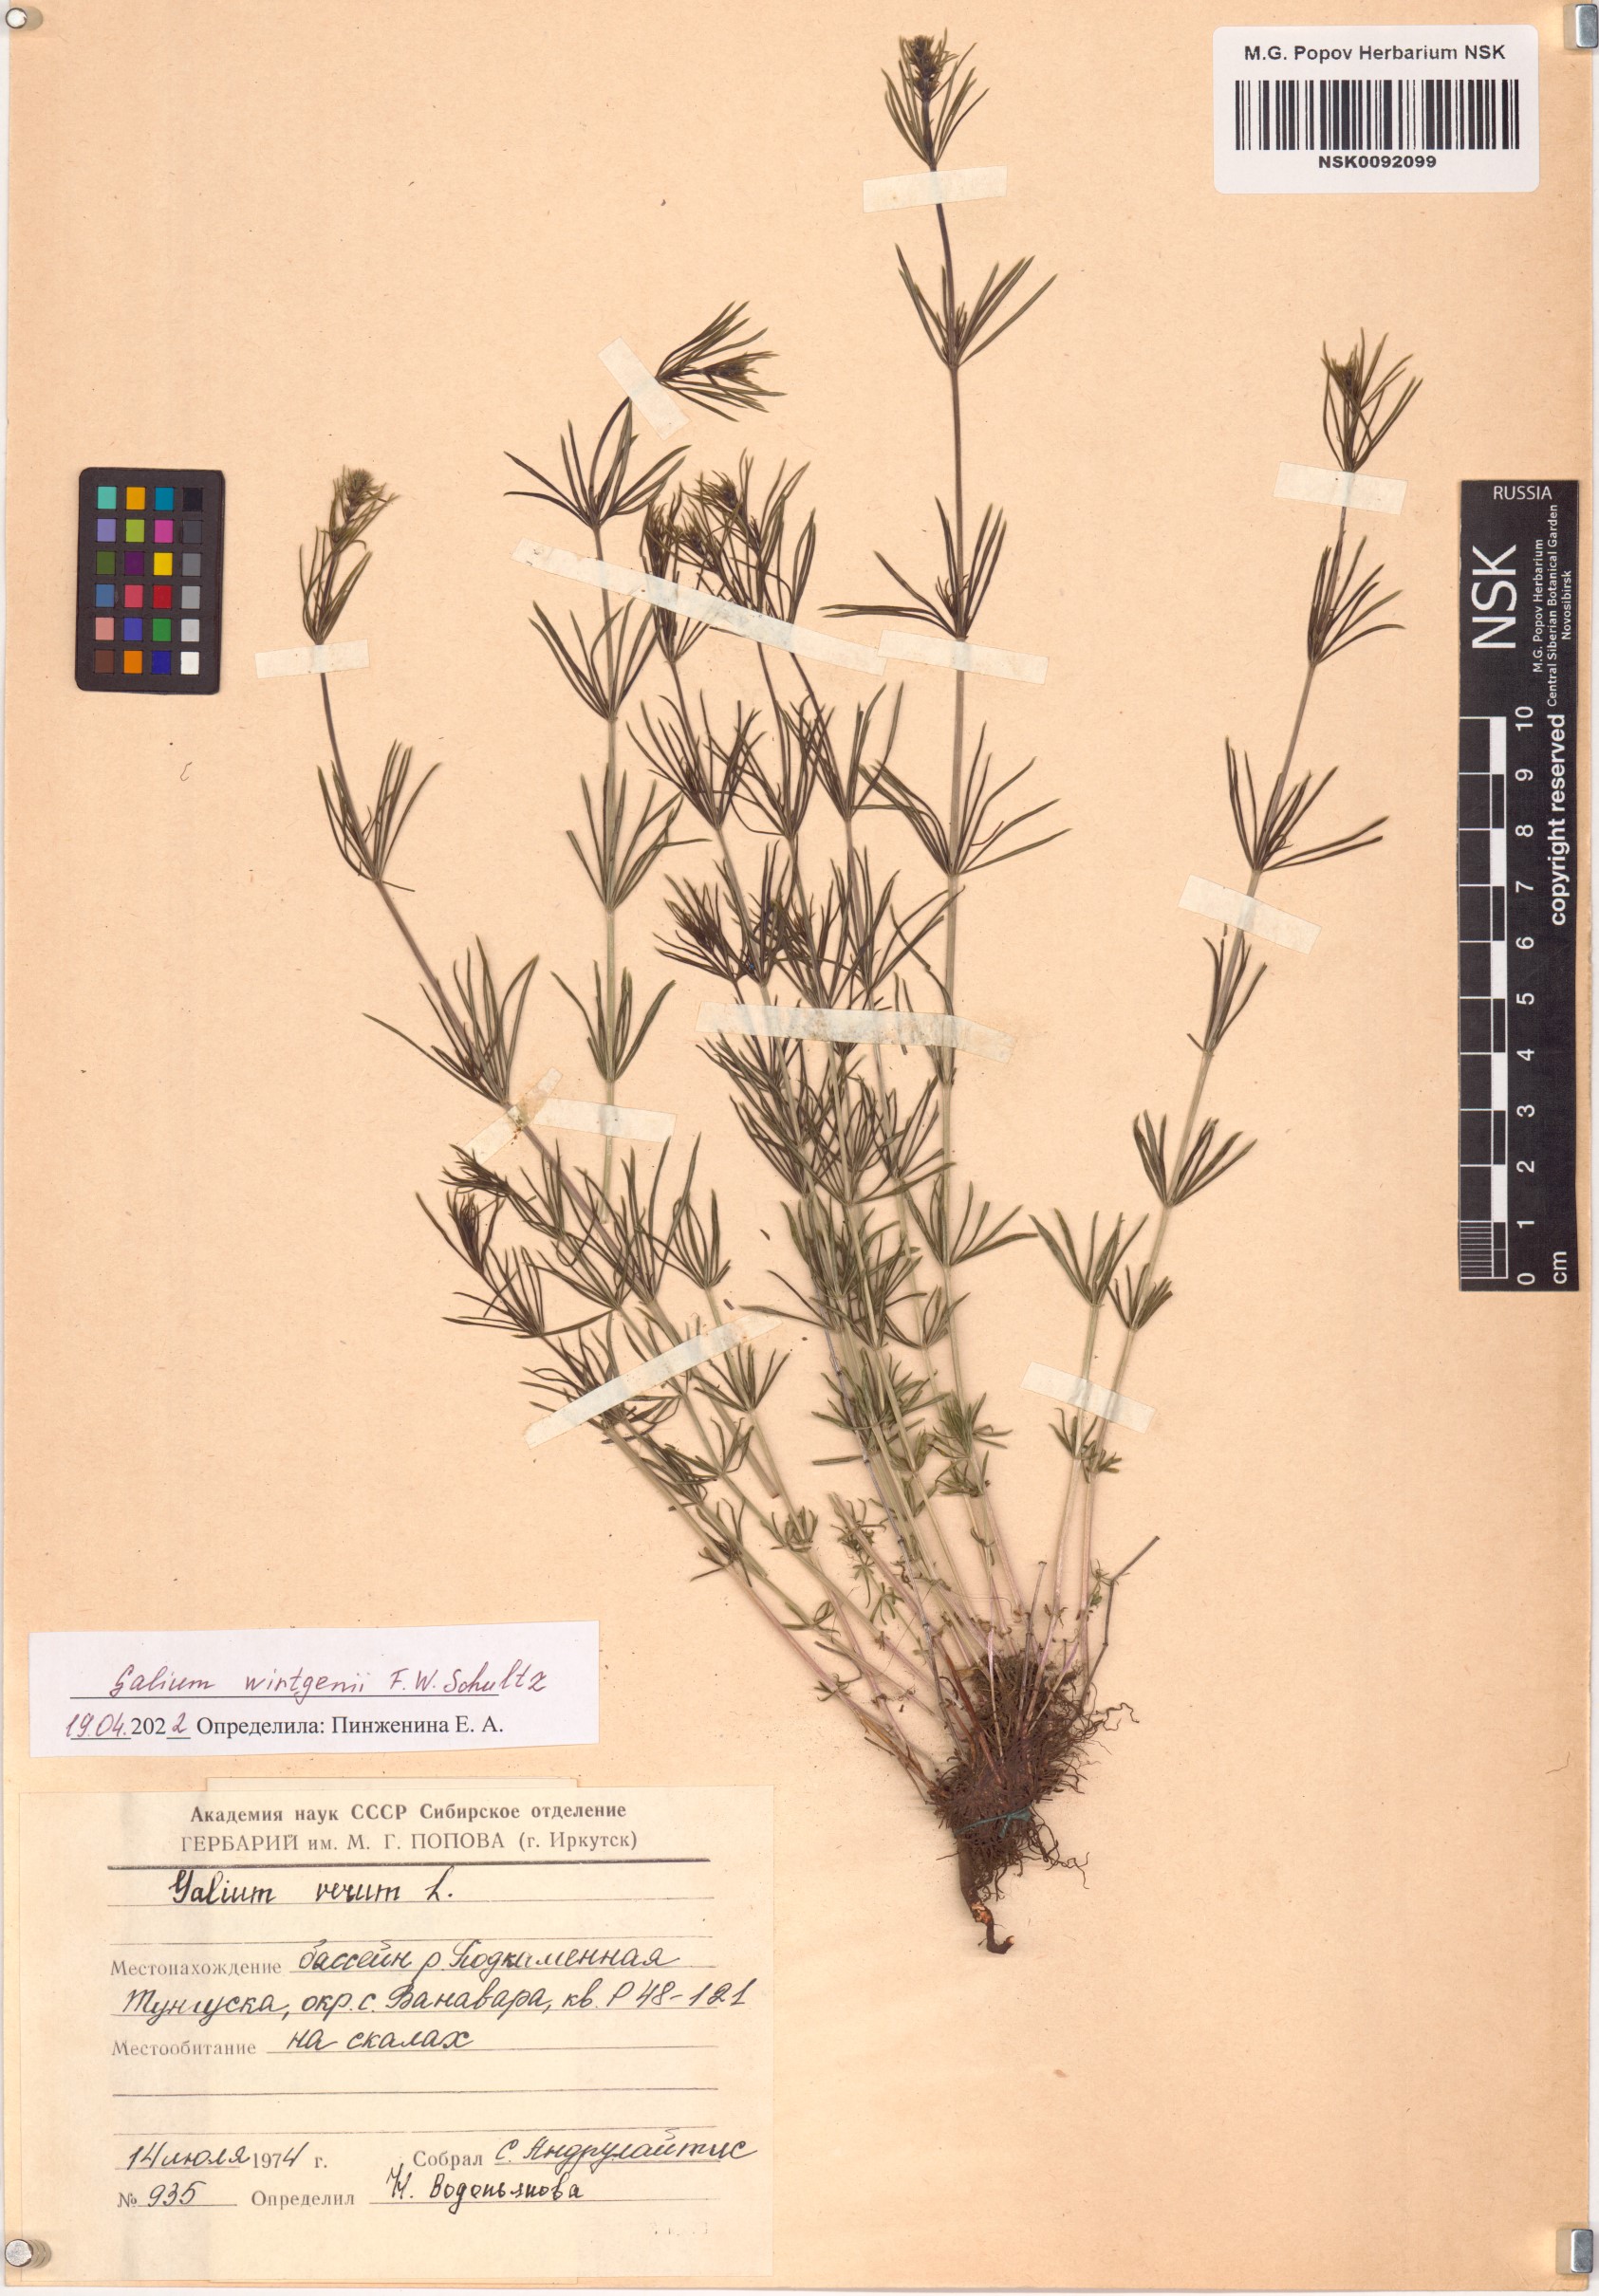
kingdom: Plantae
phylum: Tracheophyta
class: Magnoliopsida
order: Gentianales
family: Rubiaceae
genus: Galium
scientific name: Galium verum
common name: Lady's bedstraw
